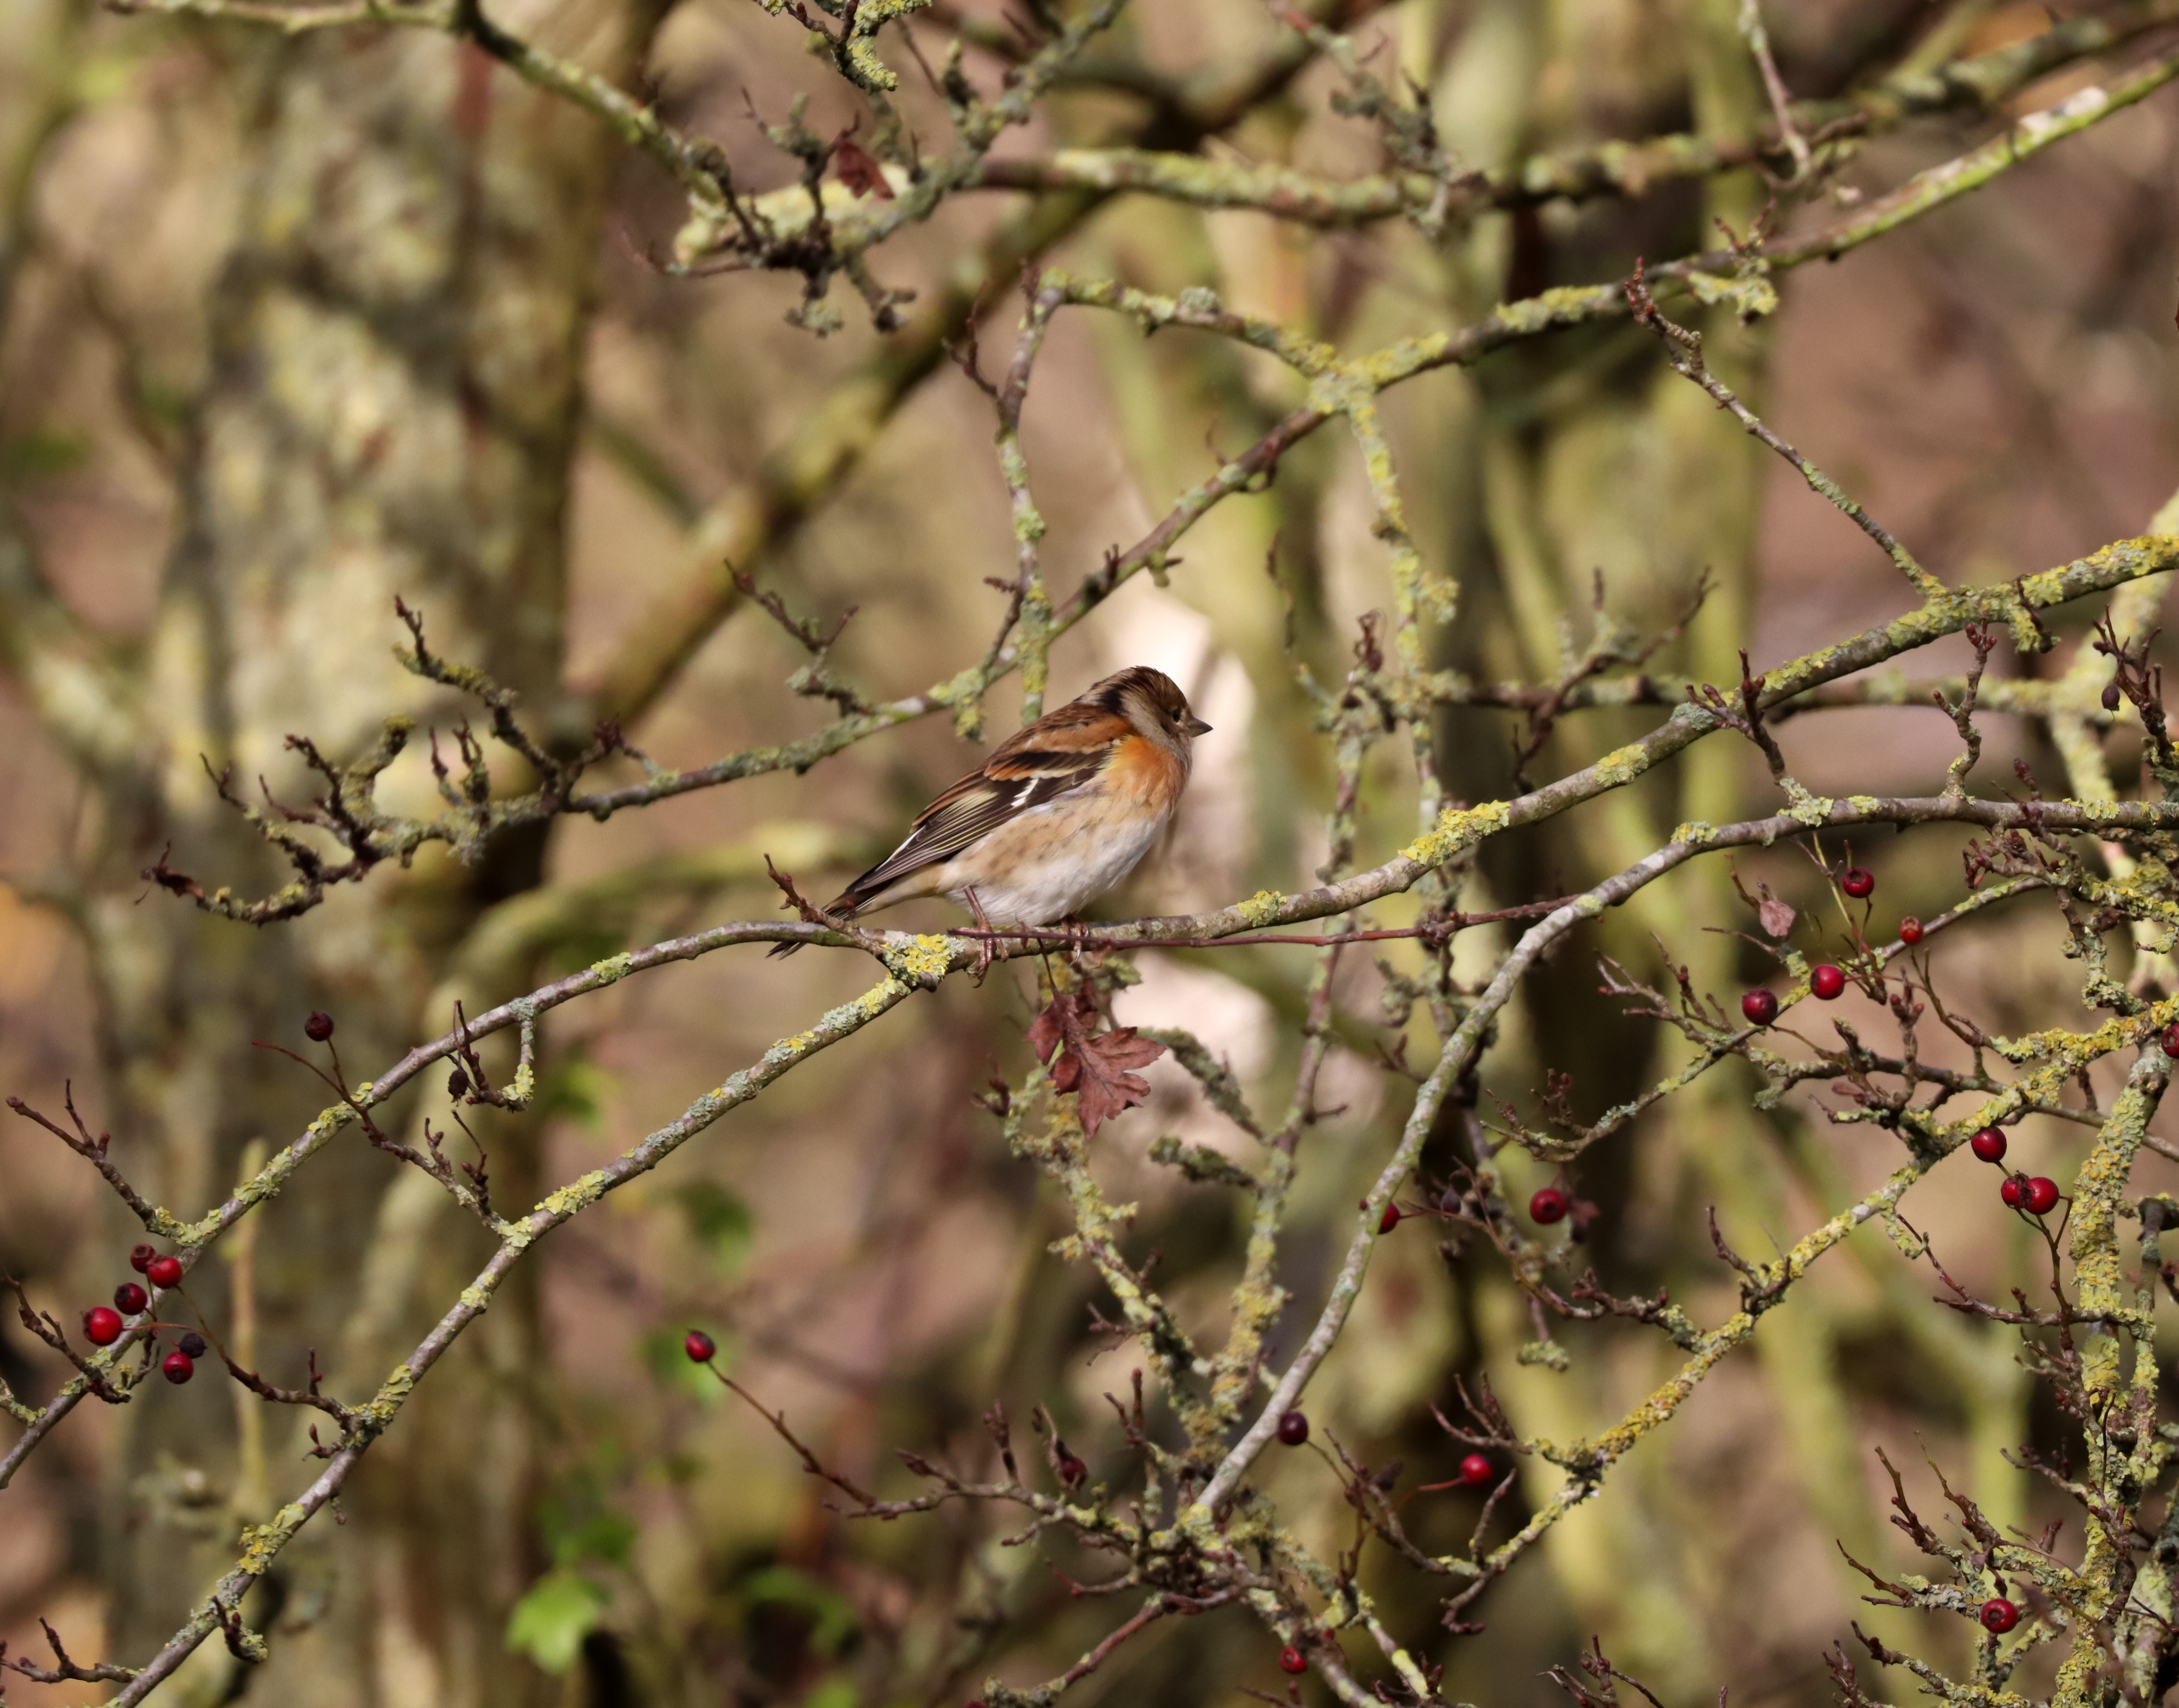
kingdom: Animalia
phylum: Chordata
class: Aves
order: Passeriformes
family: Fringillidae
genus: Fringilla
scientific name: Fringilla montifringilla
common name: Kvækerfinke
